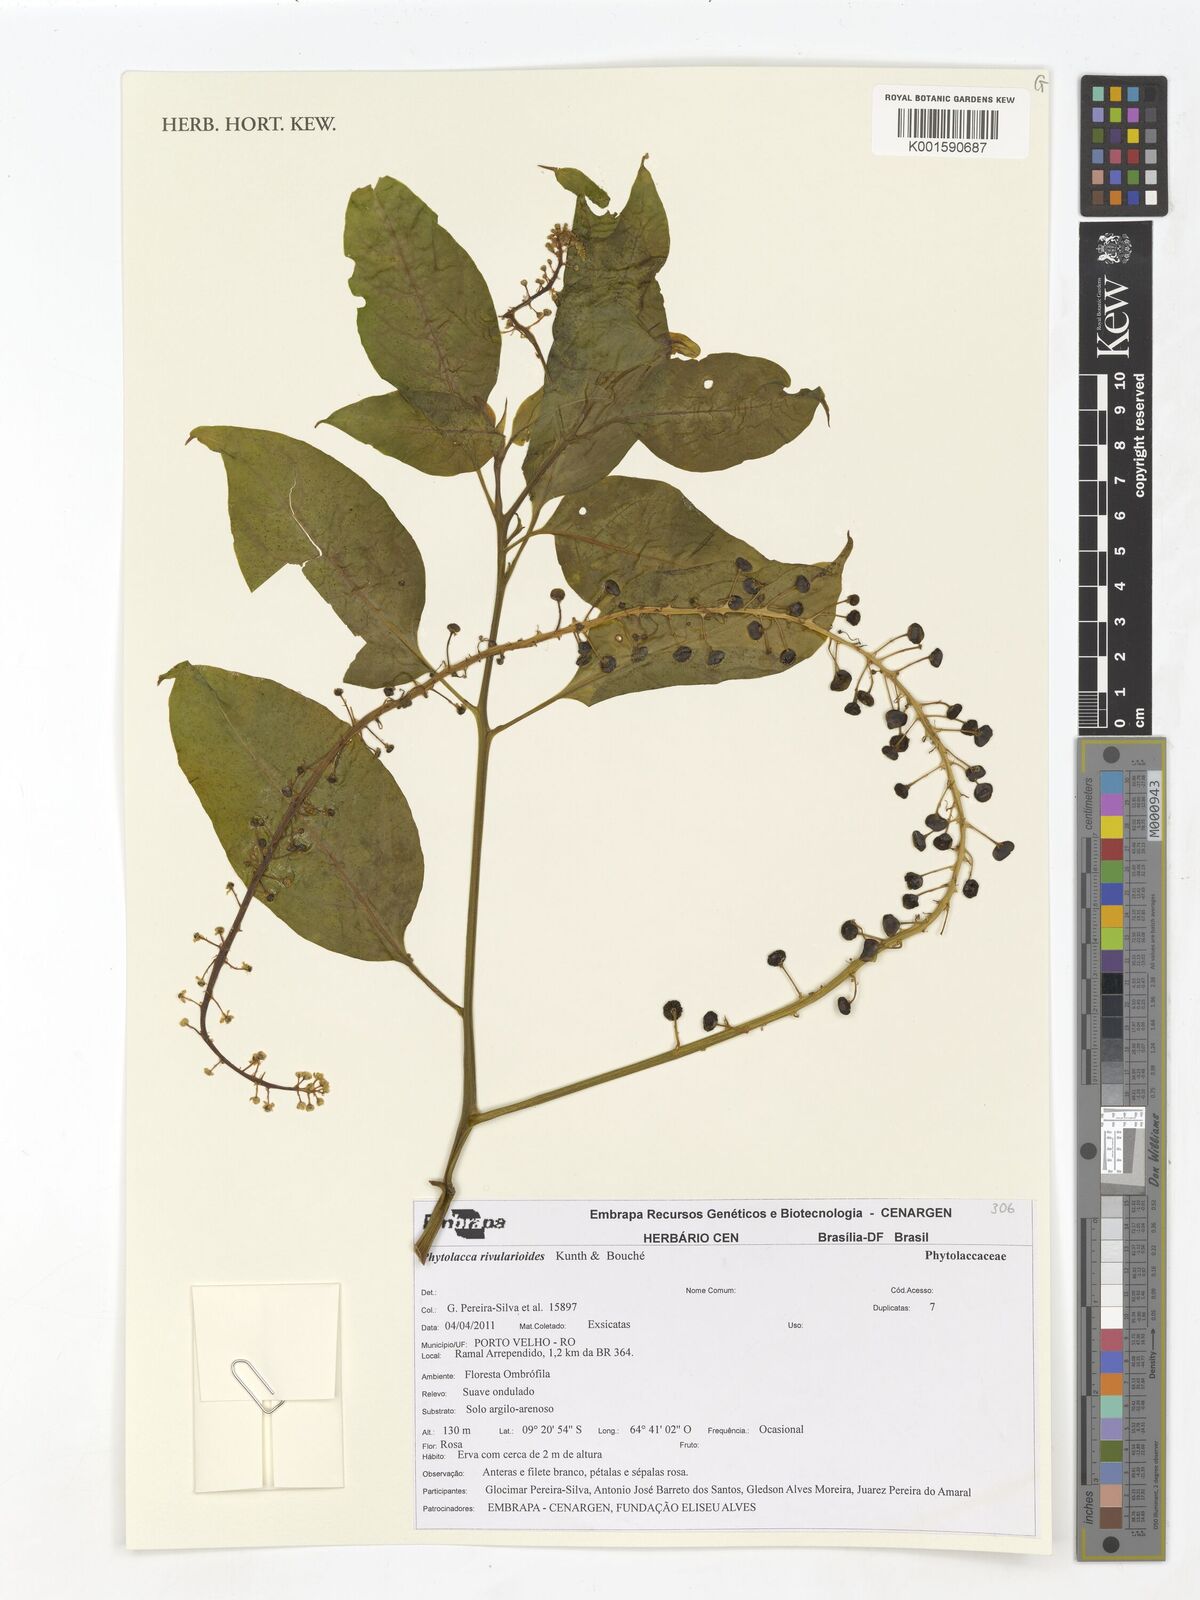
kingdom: Plantae
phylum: Tracheophyta
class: Magnoliopsida
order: Caryophyllales
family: Phytolaccaceae
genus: Phytolacca
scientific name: Phytolacca rivinoides
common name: Venezuelan pokeweed
